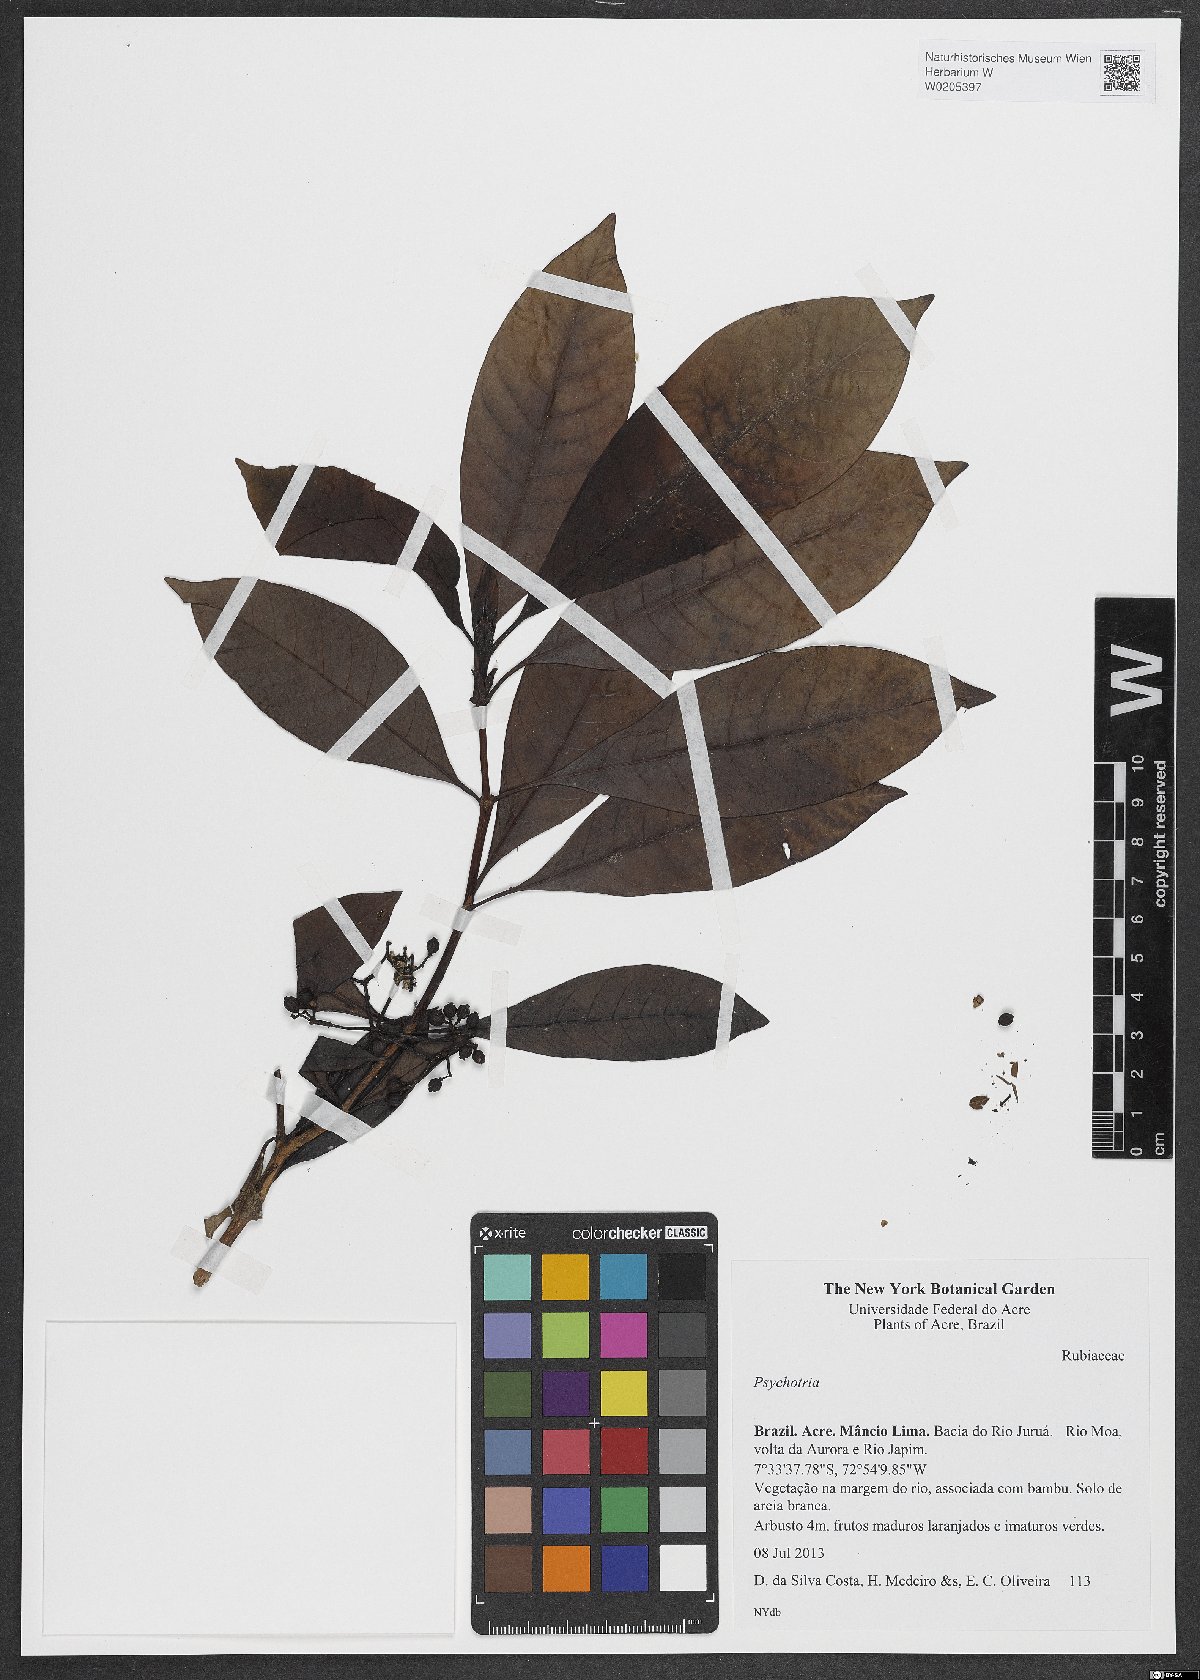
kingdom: Plantae
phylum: Tracheophyta
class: Magnoliopsida
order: Gentianales
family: Rubiaceae
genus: Psychotria
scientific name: Psychotria
